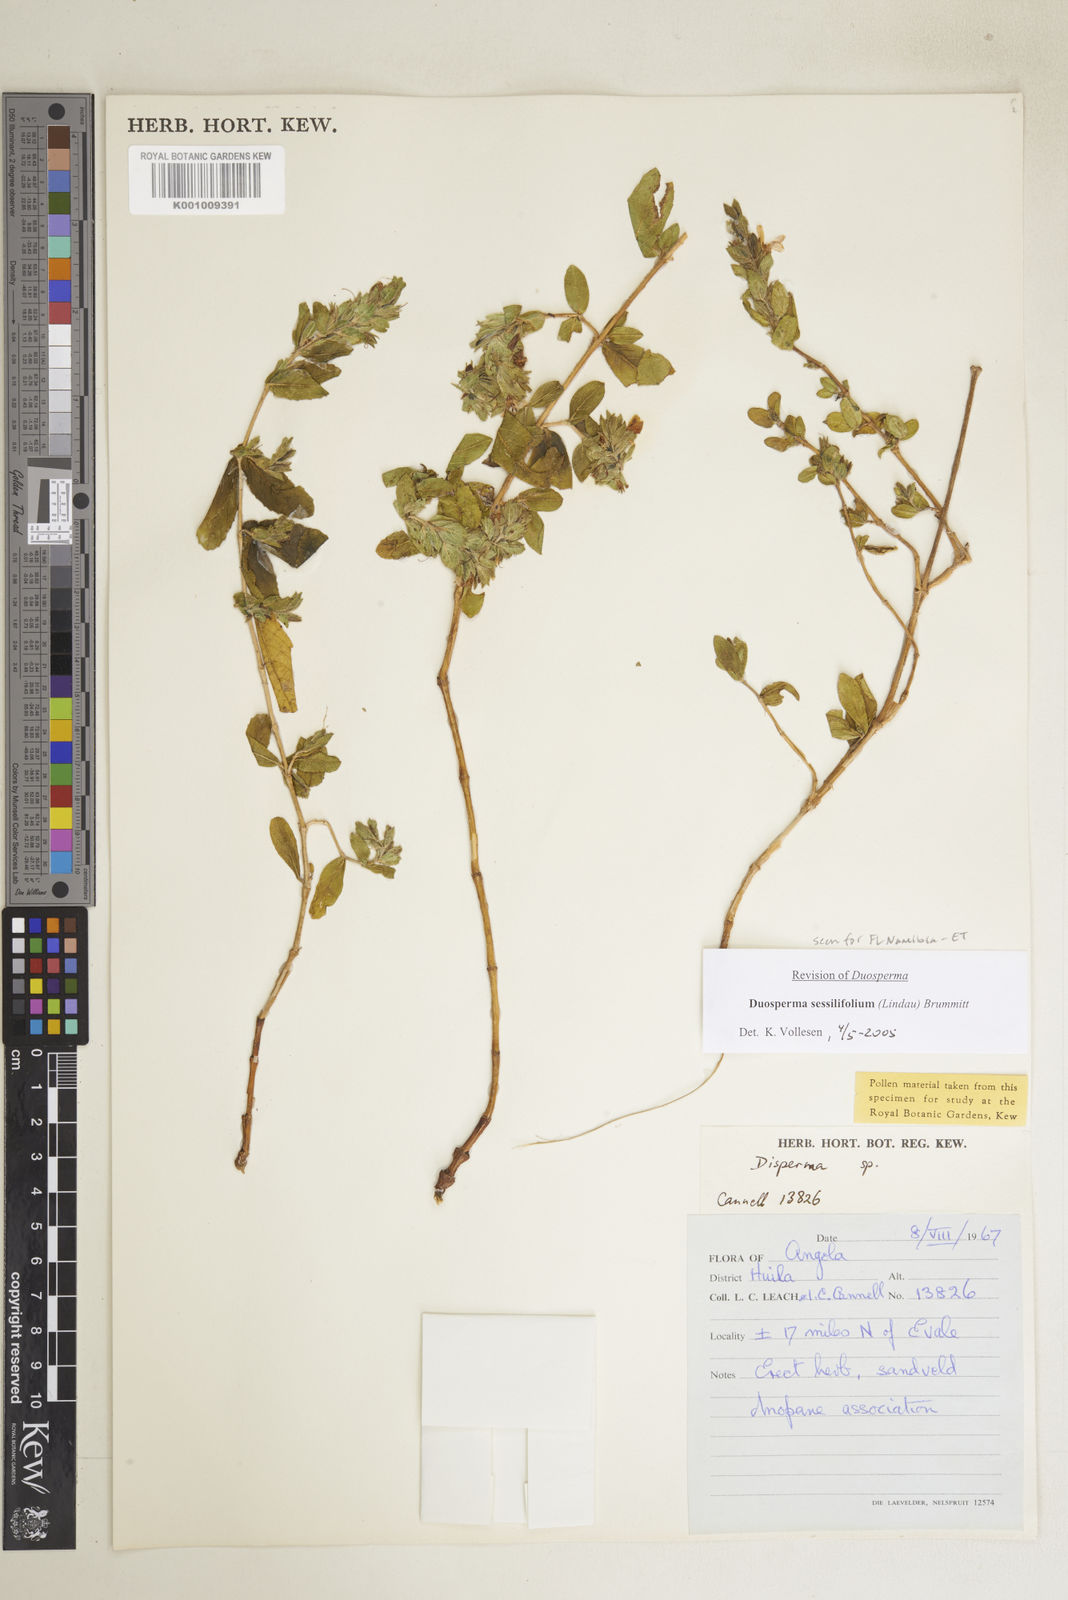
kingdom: Plantae
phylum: Tracheophyta
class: Magnoliopsida
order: Lamiales
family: Acanthaceae
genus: Duosperma
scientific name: Duosperma sessilifolium
